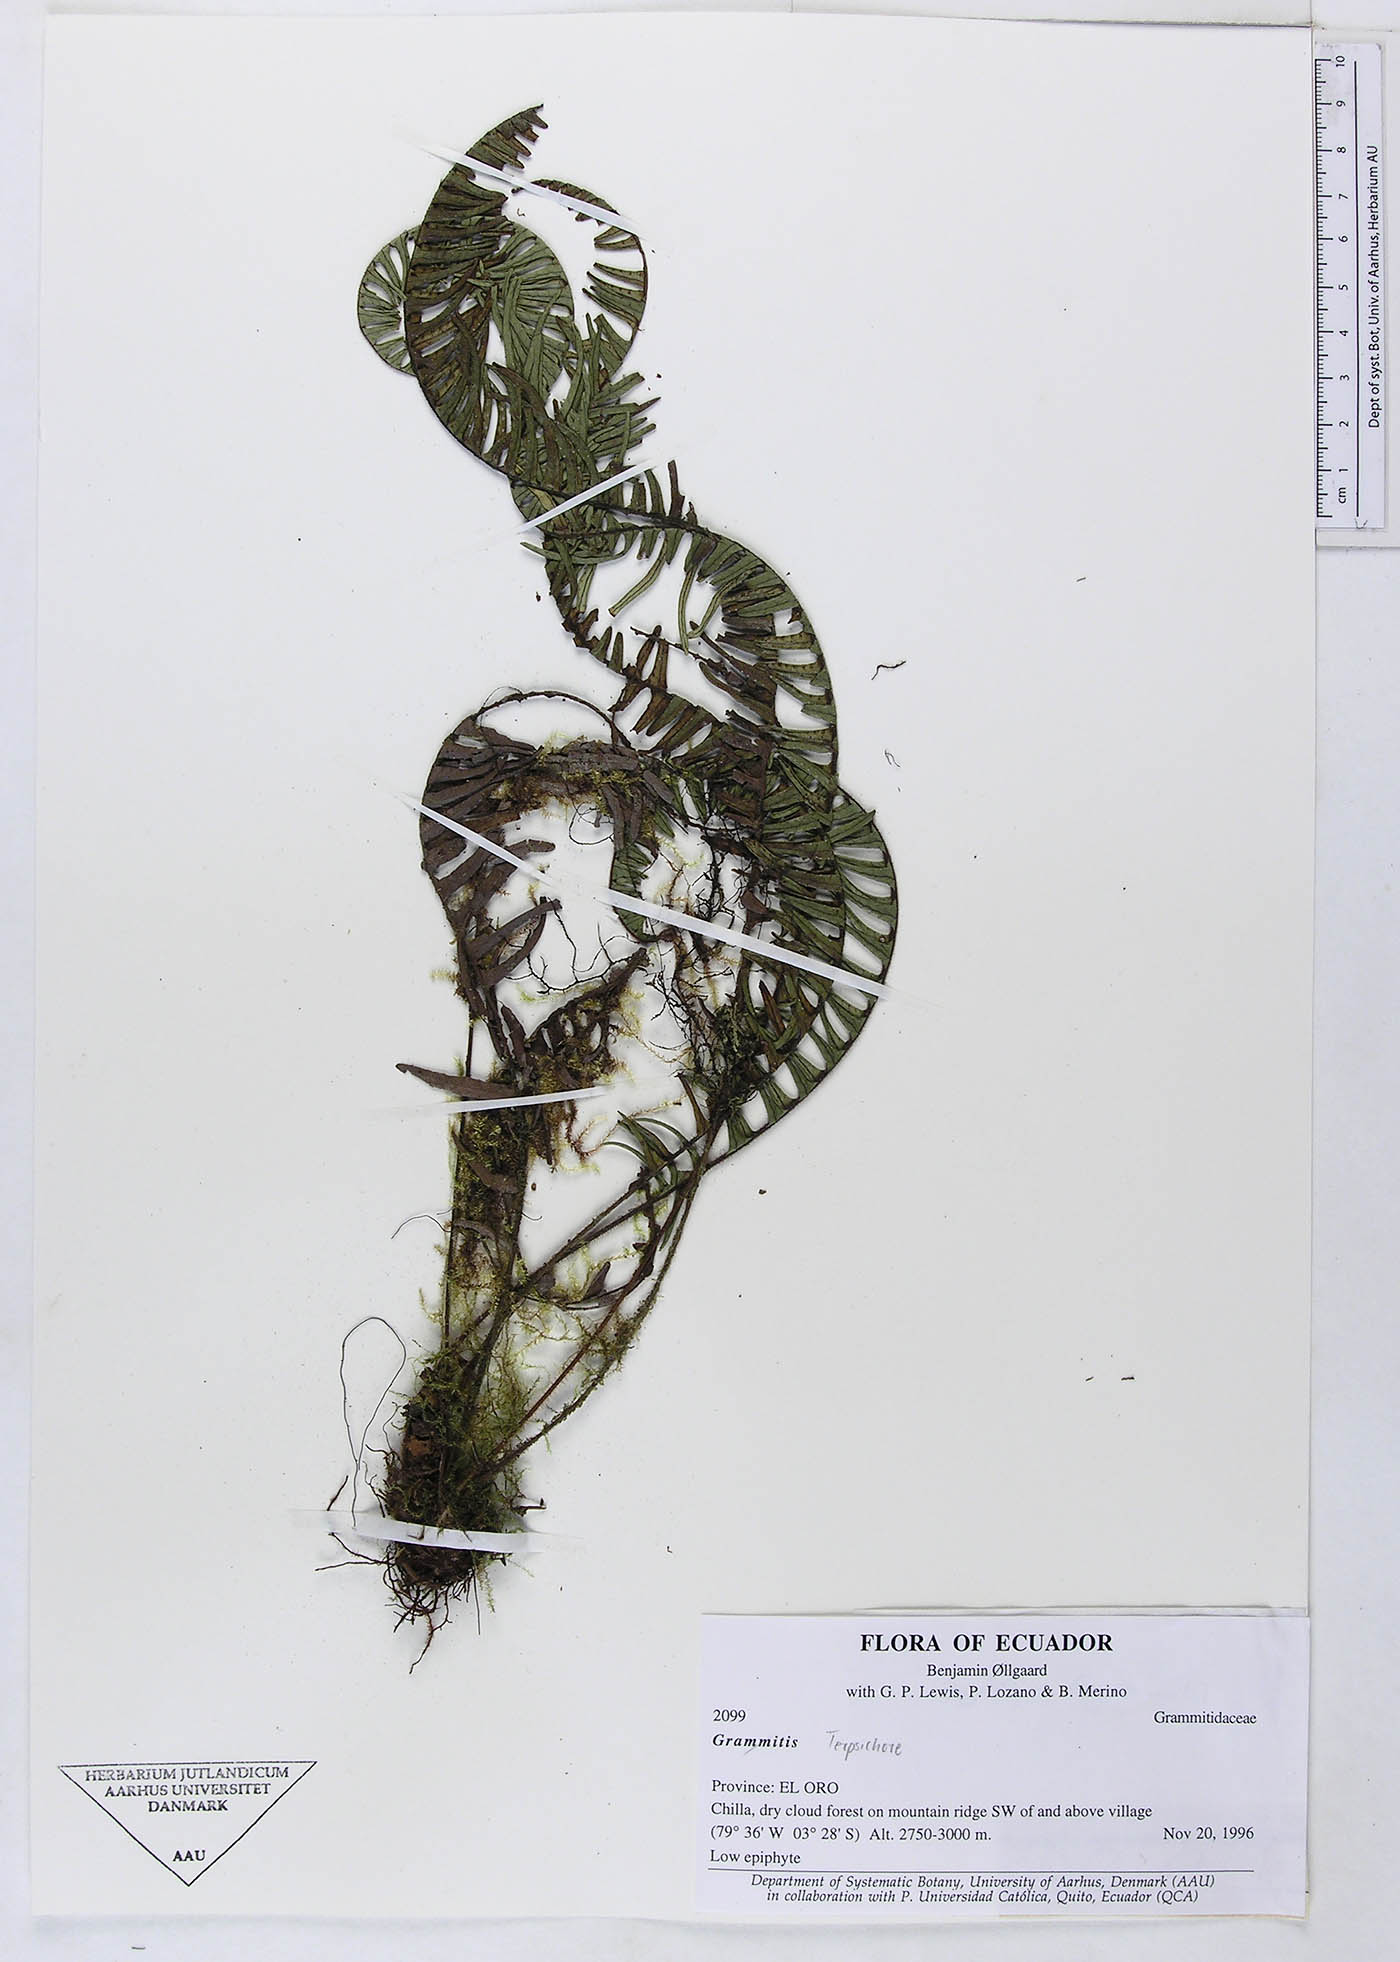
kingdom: Plantae
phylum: Tracheophyta
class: Polypodiopsida
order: Polypodiales
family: Polypodiaceae
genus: Grammitis
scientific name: Grammitis
